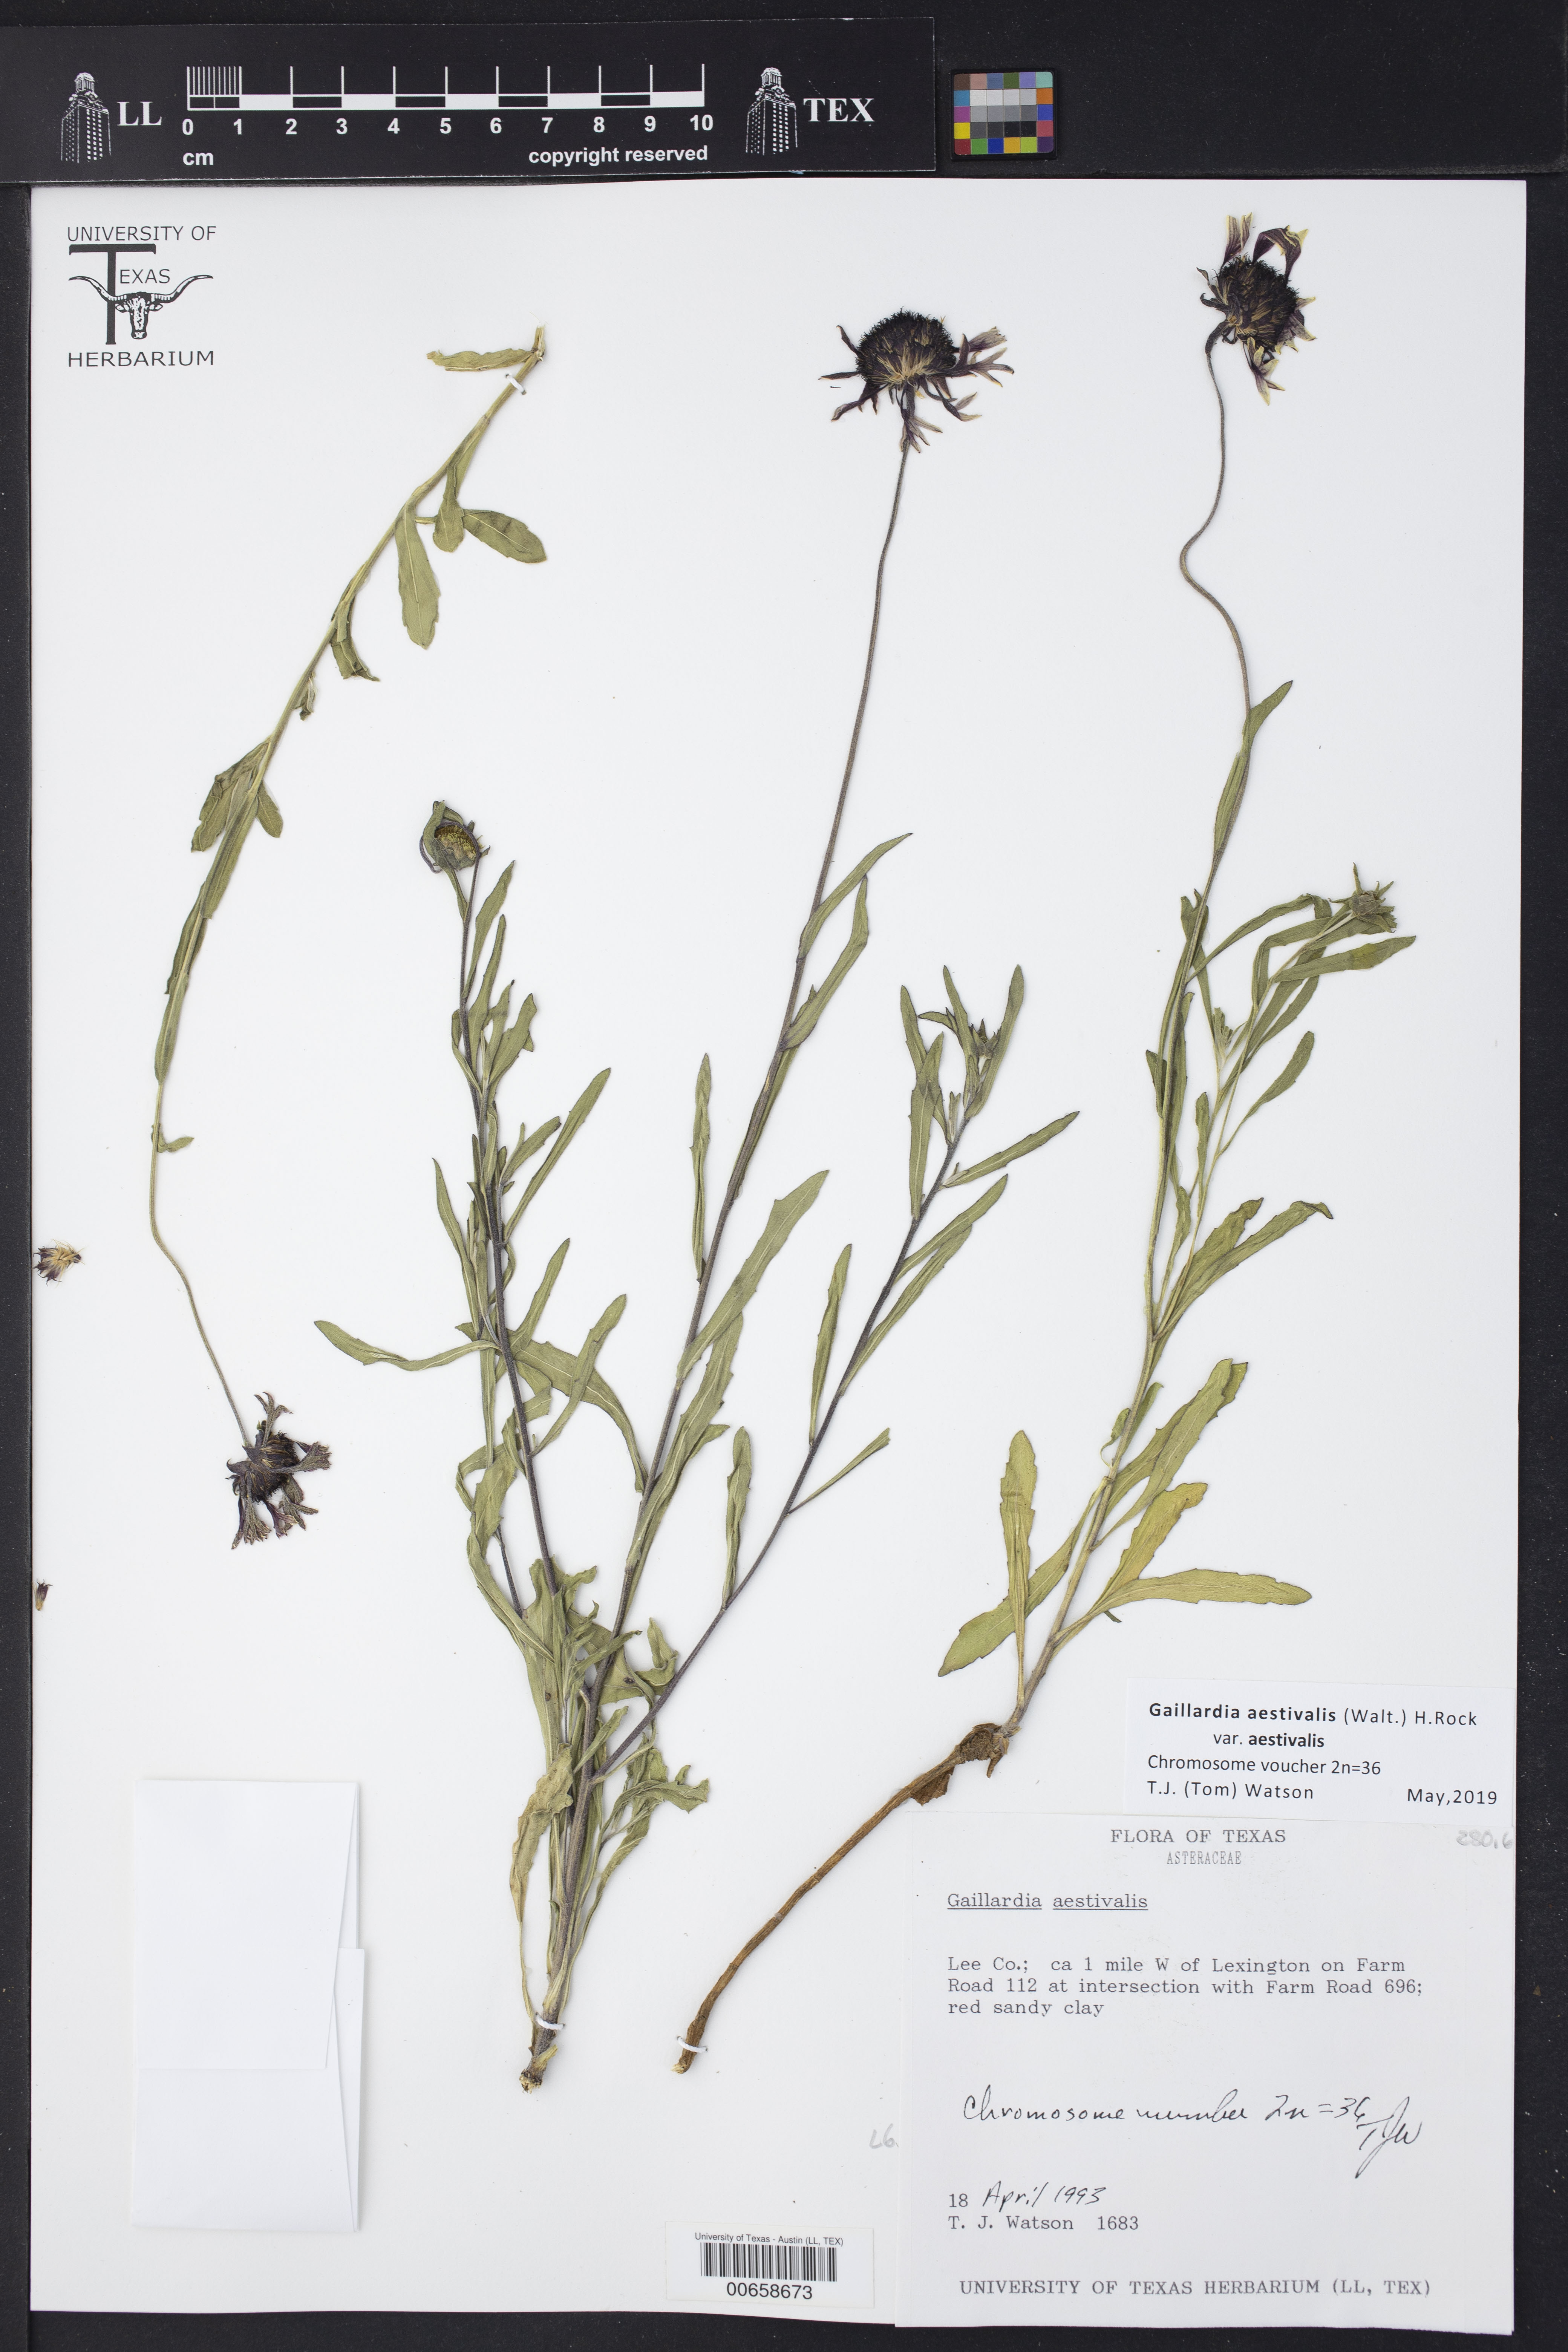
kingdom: Plantae
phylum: Tracheophyta
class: Magnoliopsida
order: Asterales
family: Asteraceae
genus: Gaillardia
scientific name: Gaillardia aestivalis
